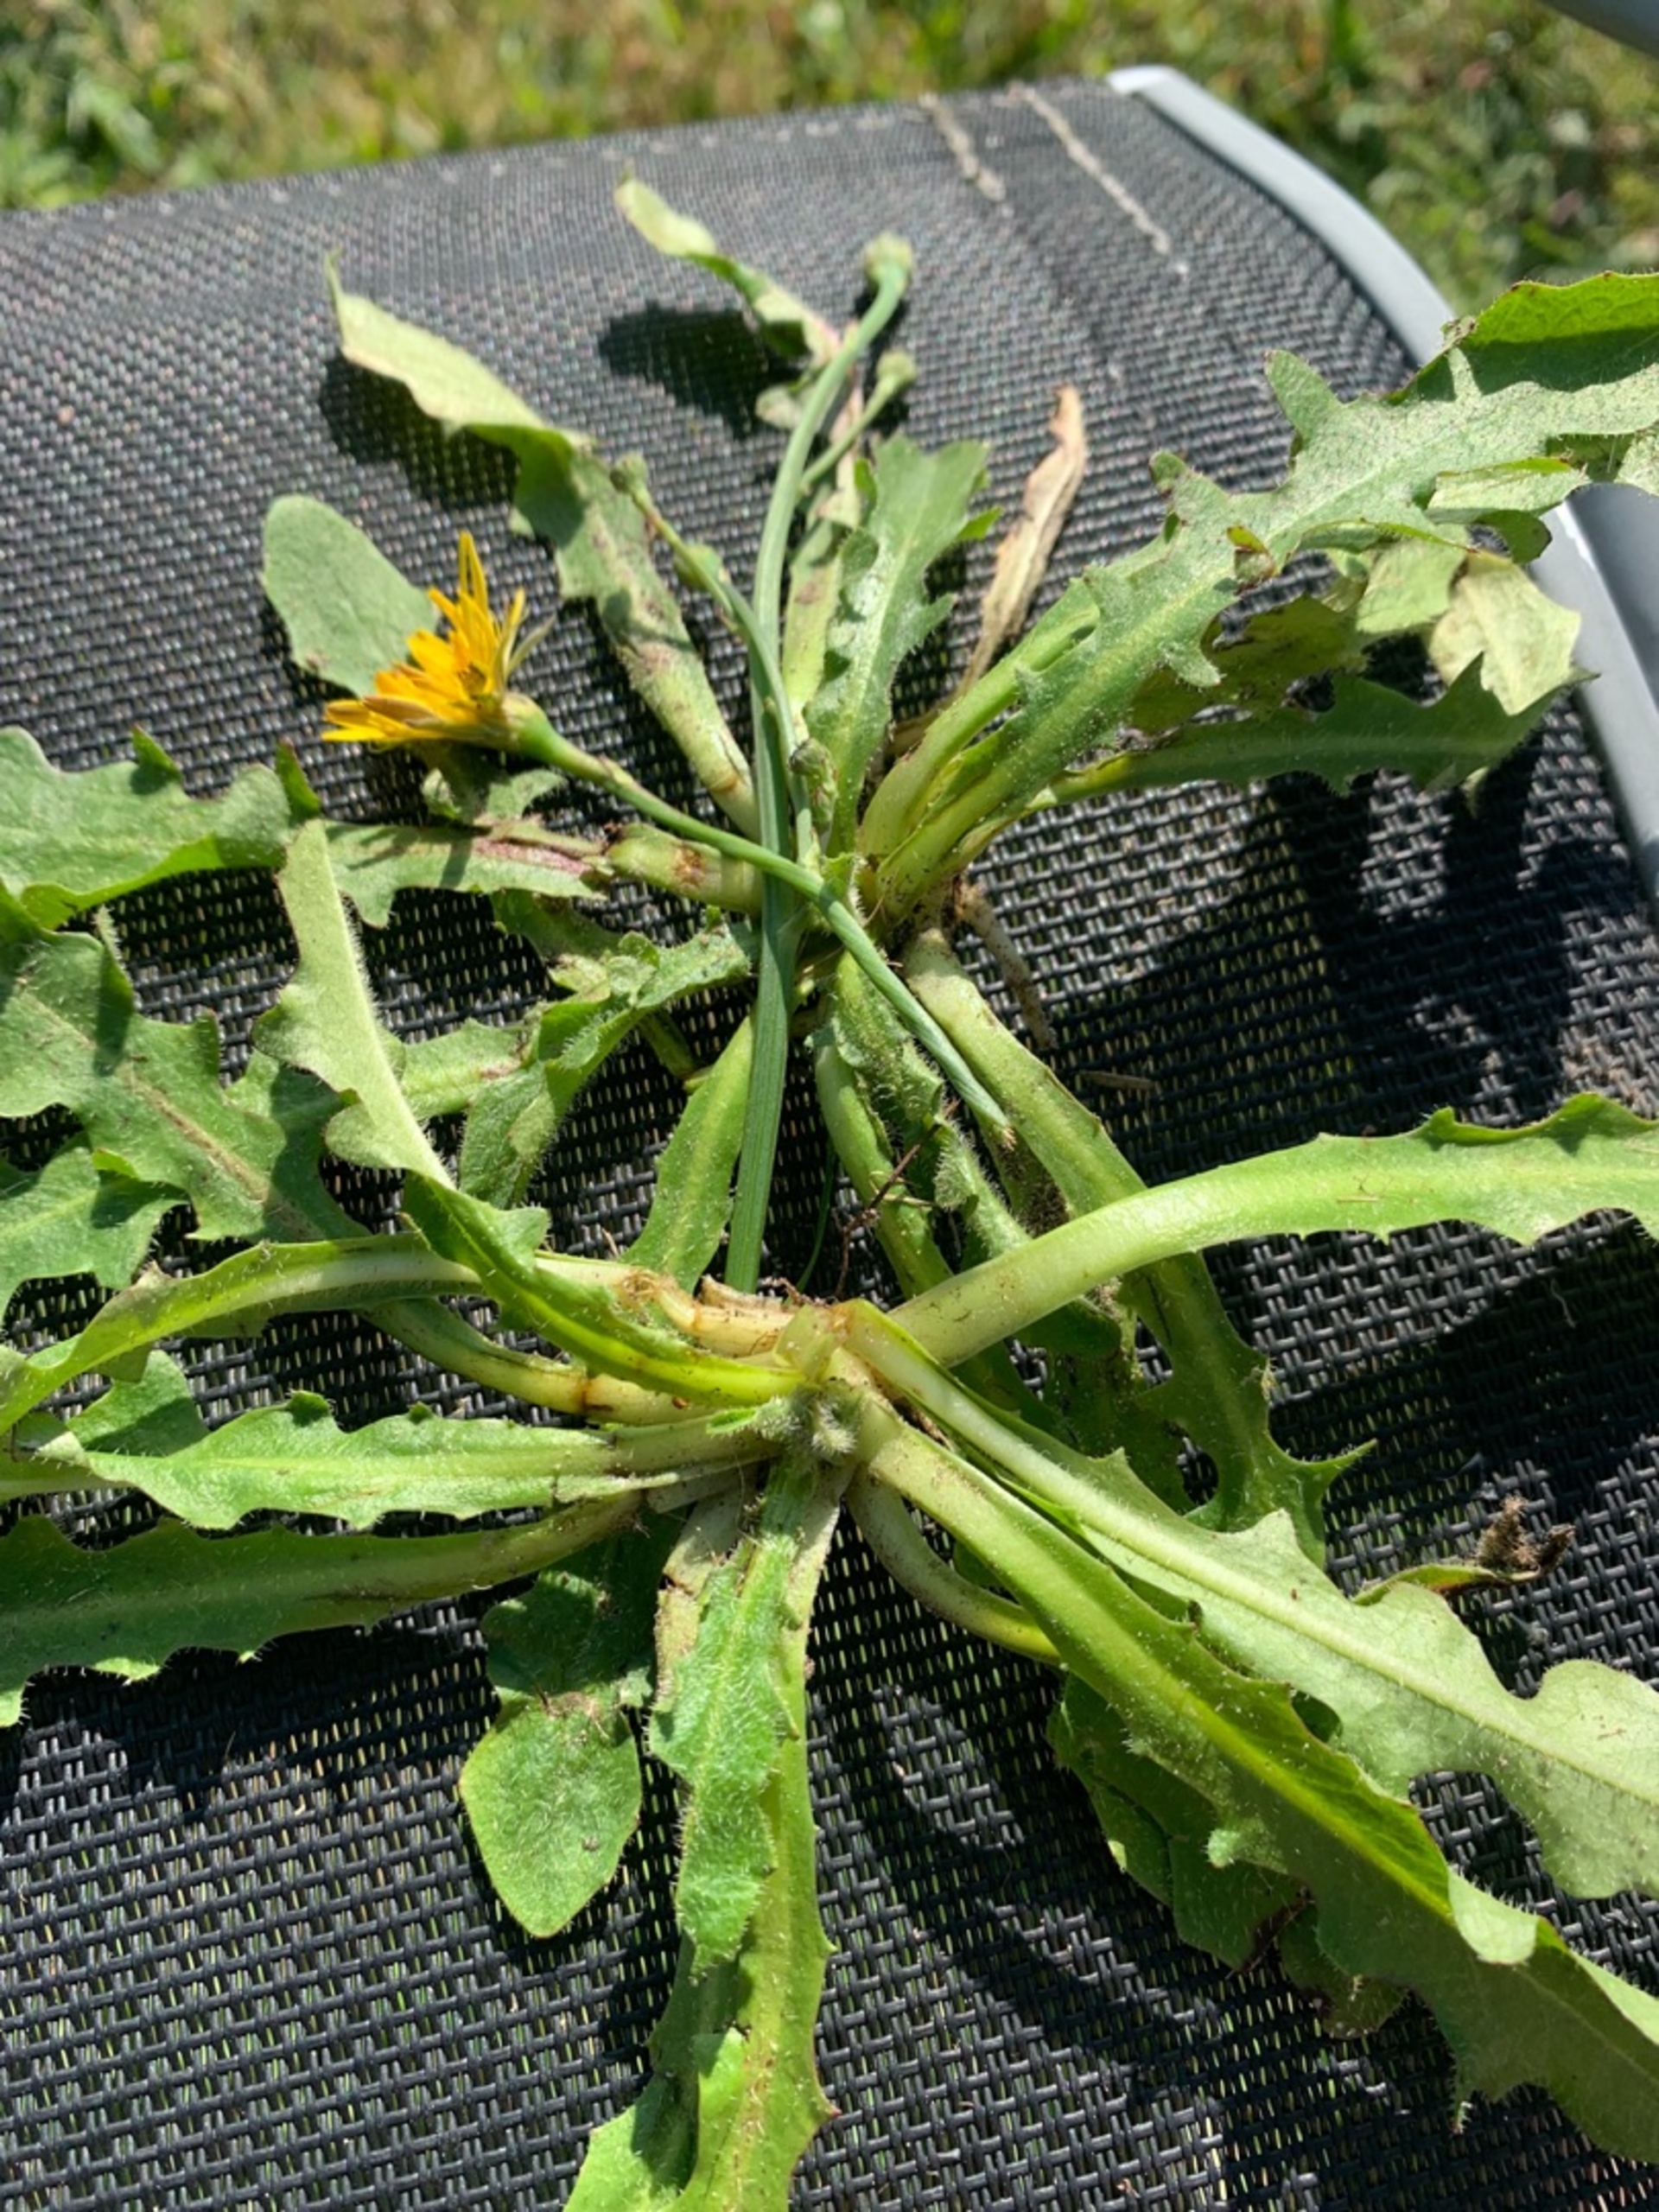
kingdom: Plantae
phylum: Tracheophyta
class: Magnoliopsida
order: Asterales
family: Asteraceae
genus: Hypochaeris
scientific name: Hypochaeris radicata
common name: Almindelig kongepen
